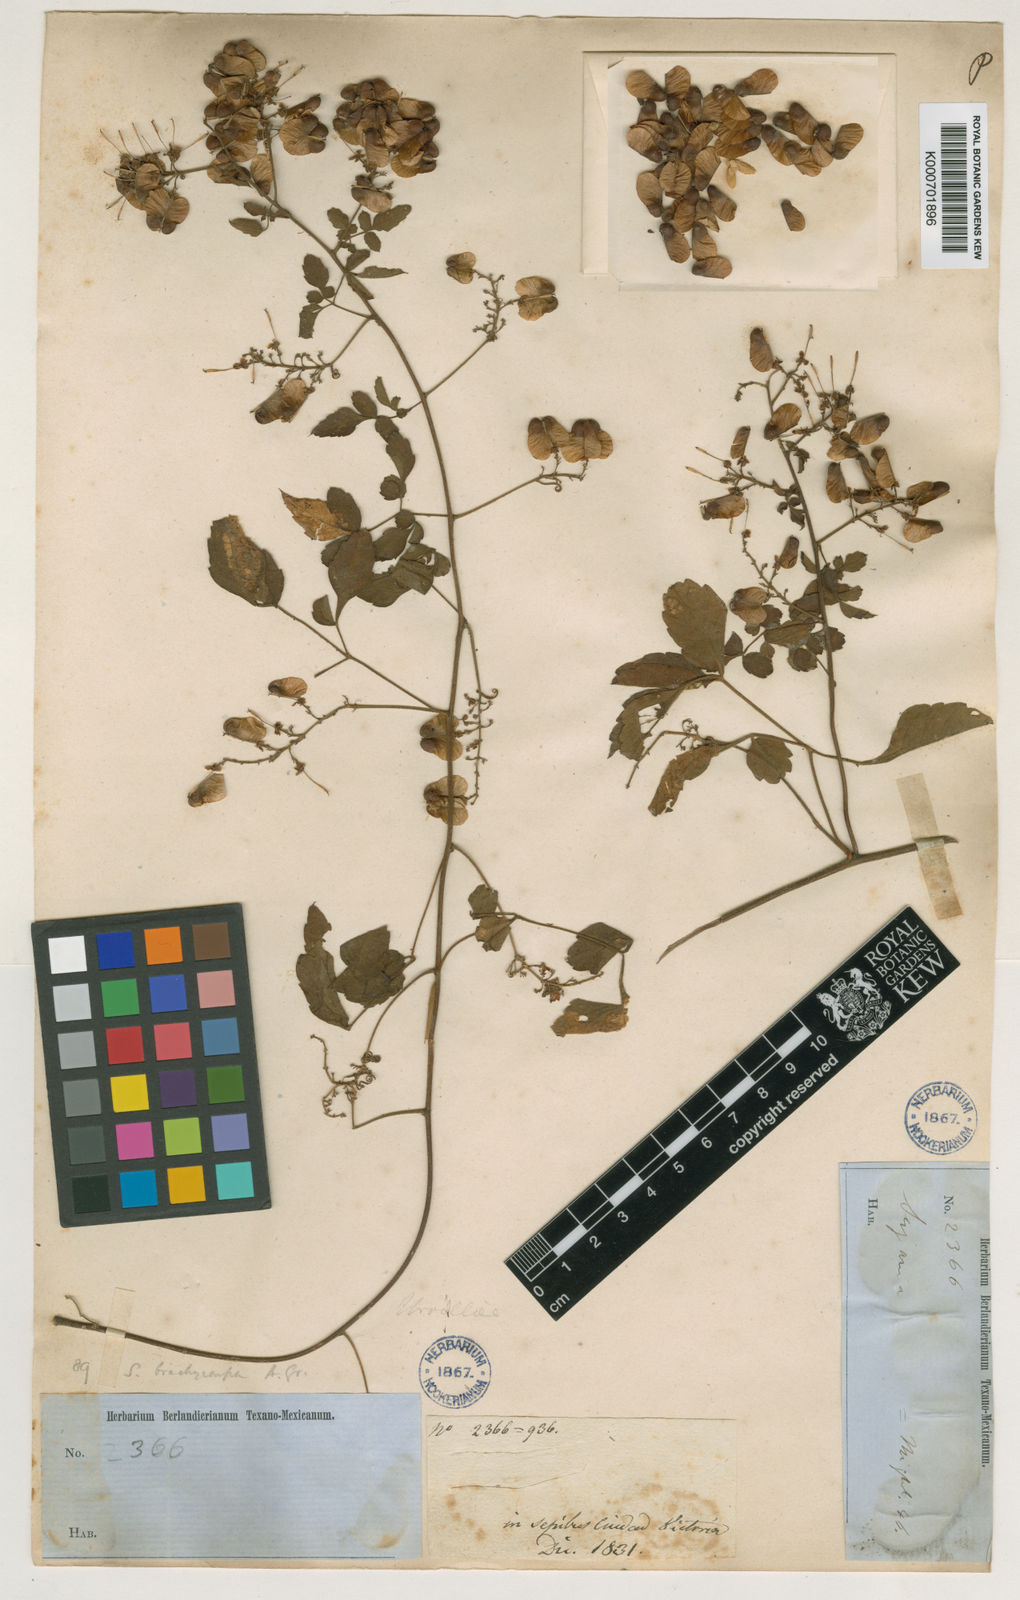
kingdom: Plantae
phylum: Tracheophyta
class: Magnoliopsida
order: Sapindales
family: Sapindaceae
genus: Serjania
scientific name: Serjania
